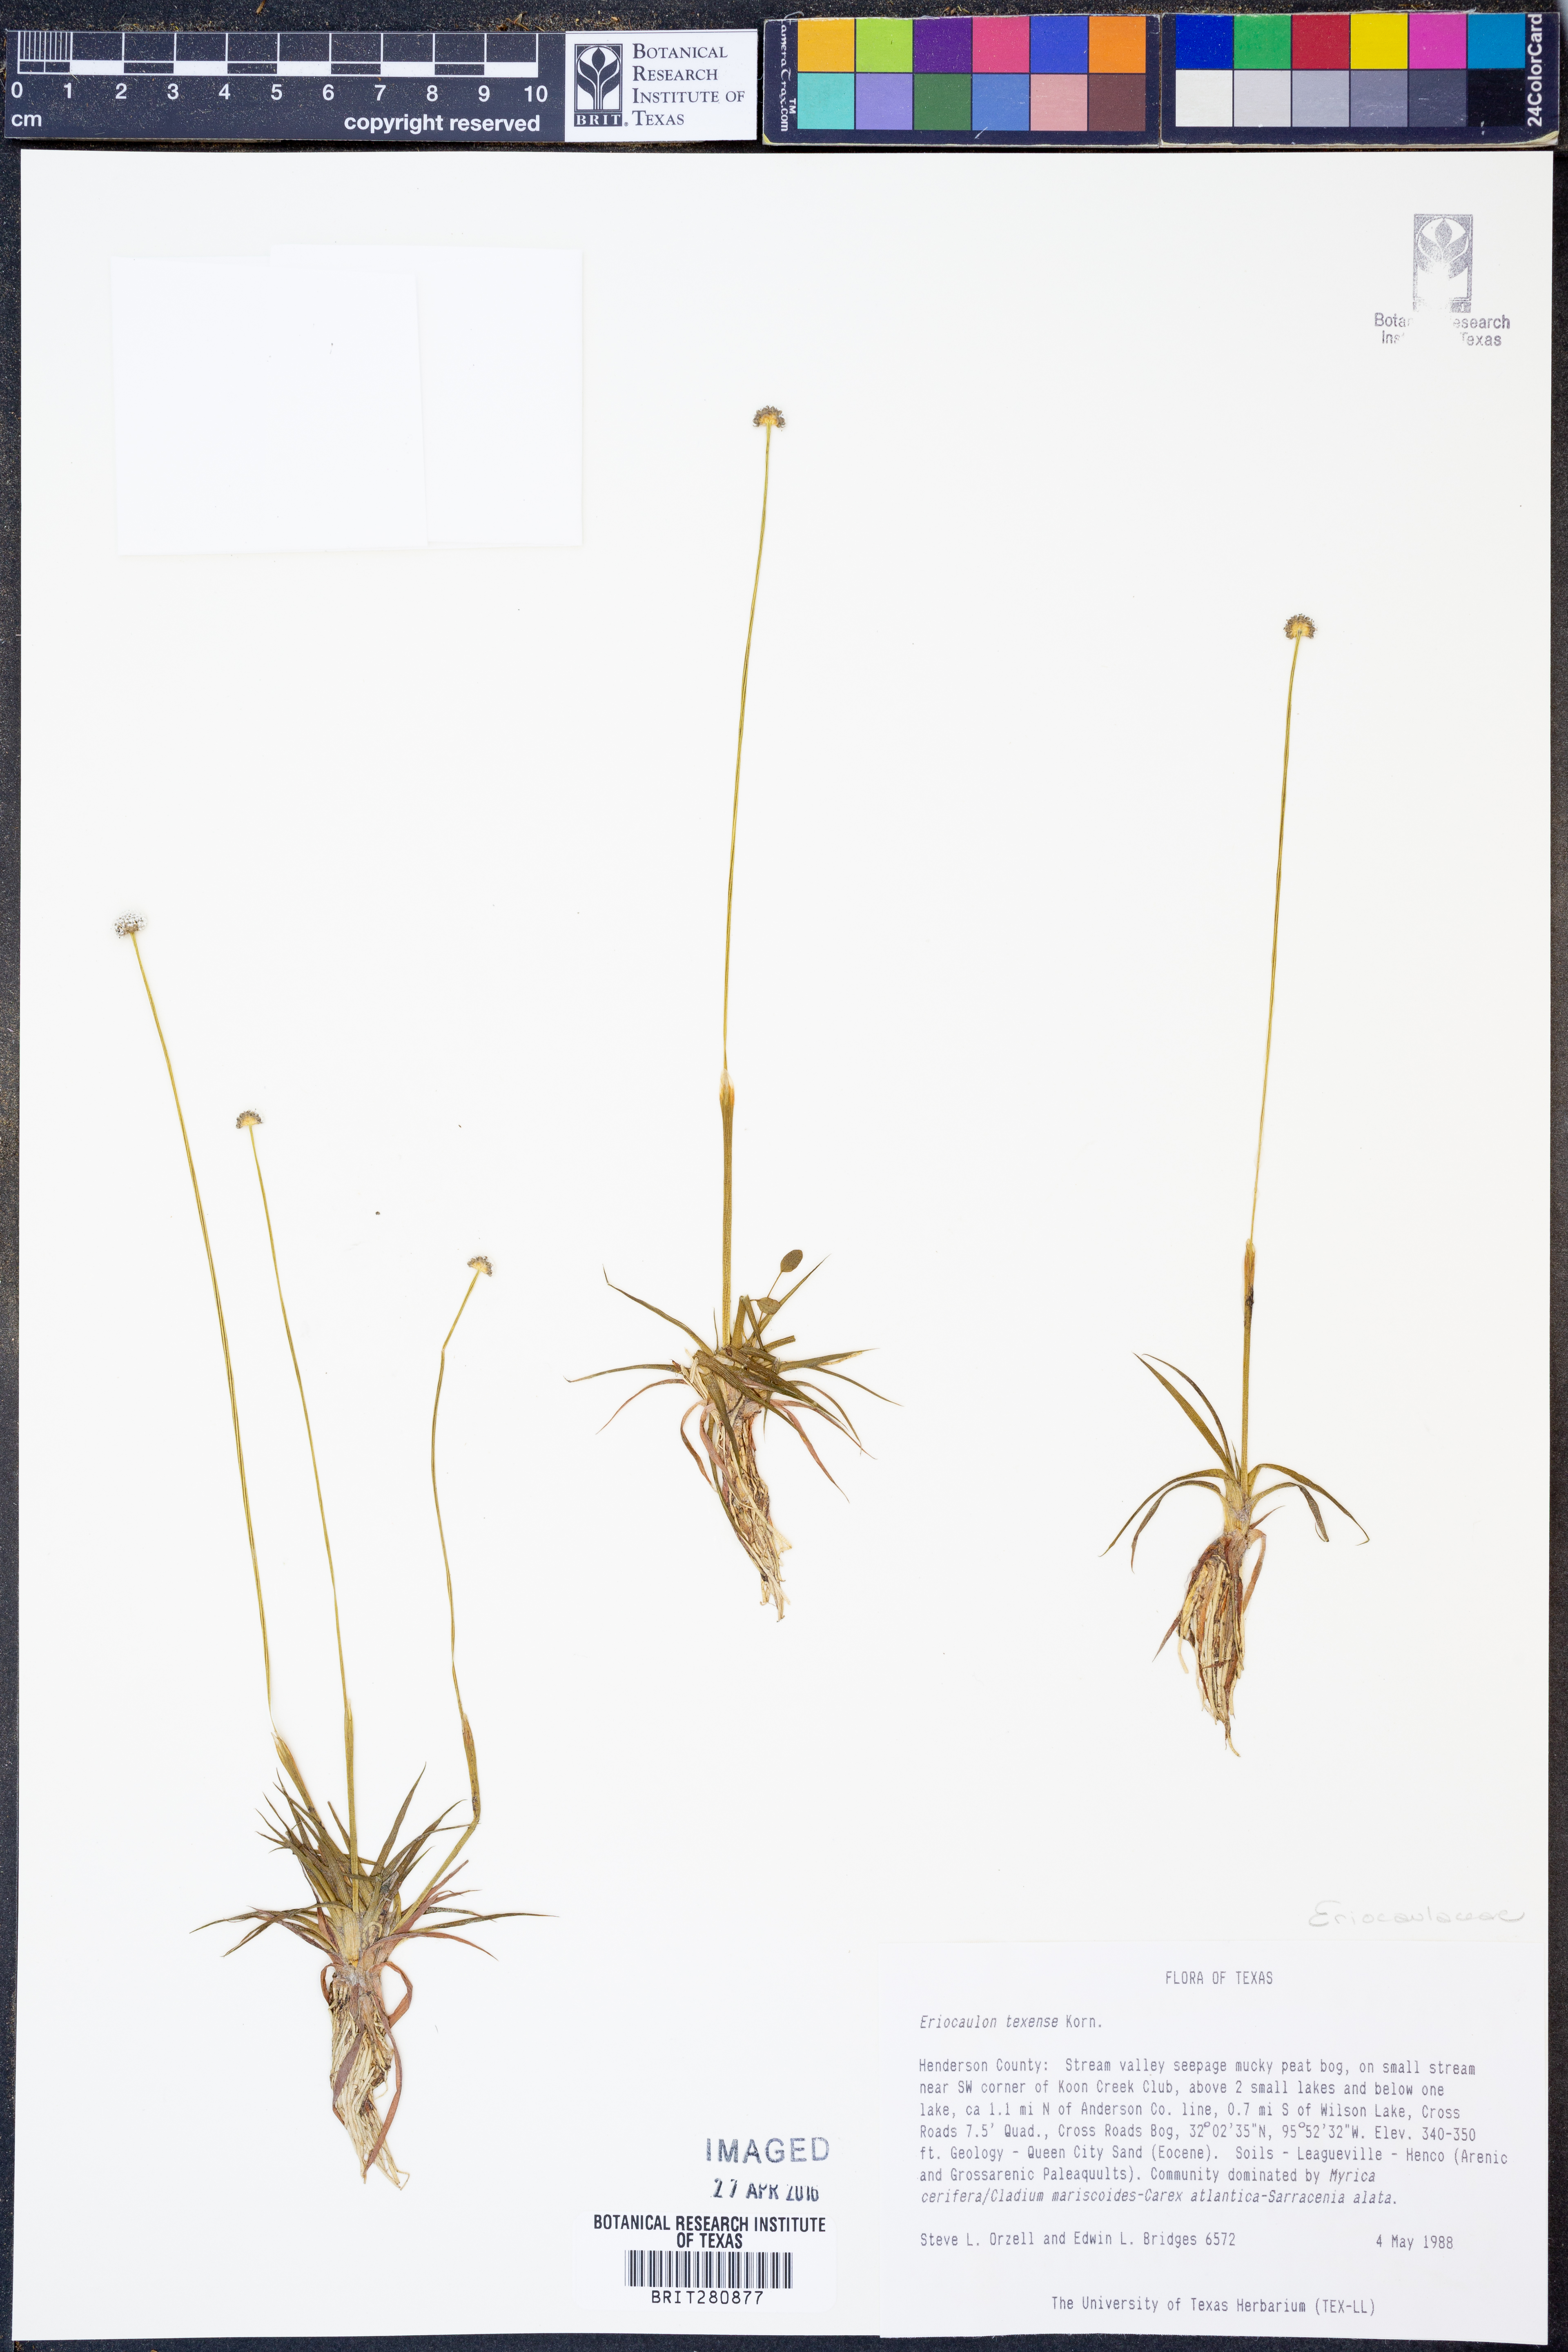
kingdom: Plantae
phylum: Tracheophyta
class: Liliopsida
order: Poales
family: Eriocaulaceae
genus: Eriocaulon
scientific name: Eriocaulon texense
